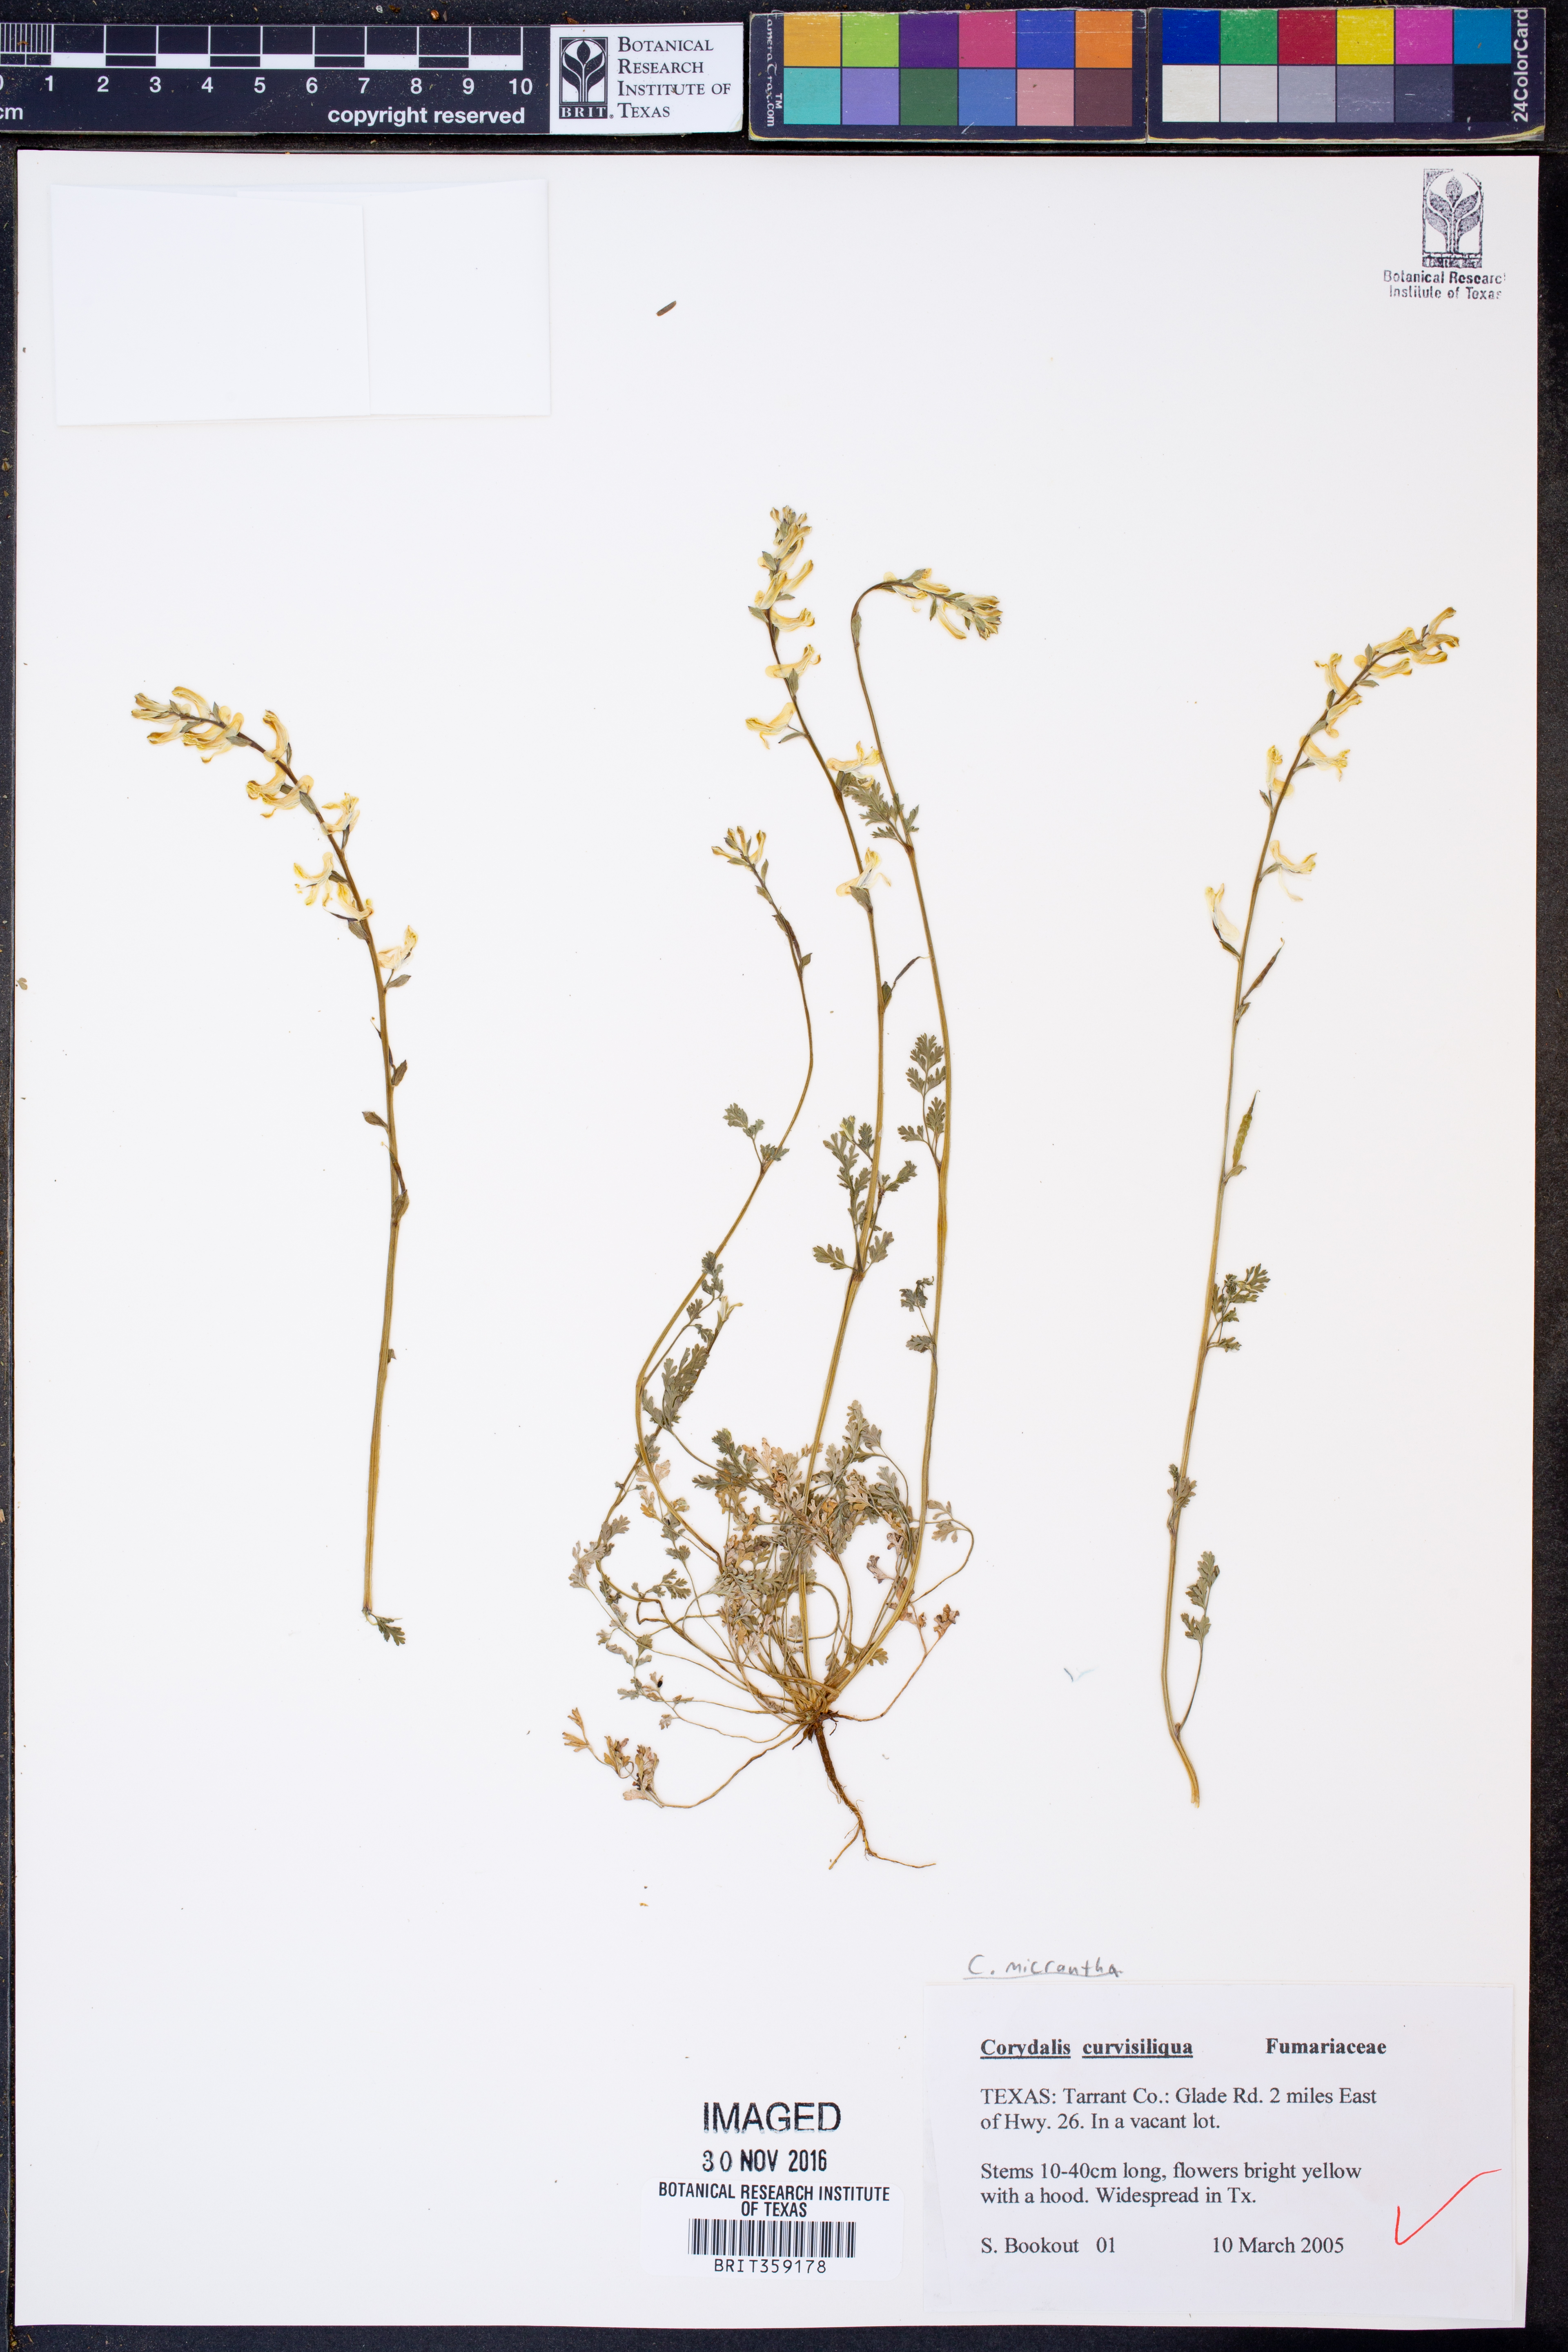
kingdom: Plantae
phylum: Tracheophyta
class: Magnoliopsida
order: Ranunculales
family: Papaveraceae
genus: Corydalis
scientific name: Corydalis micrantha
